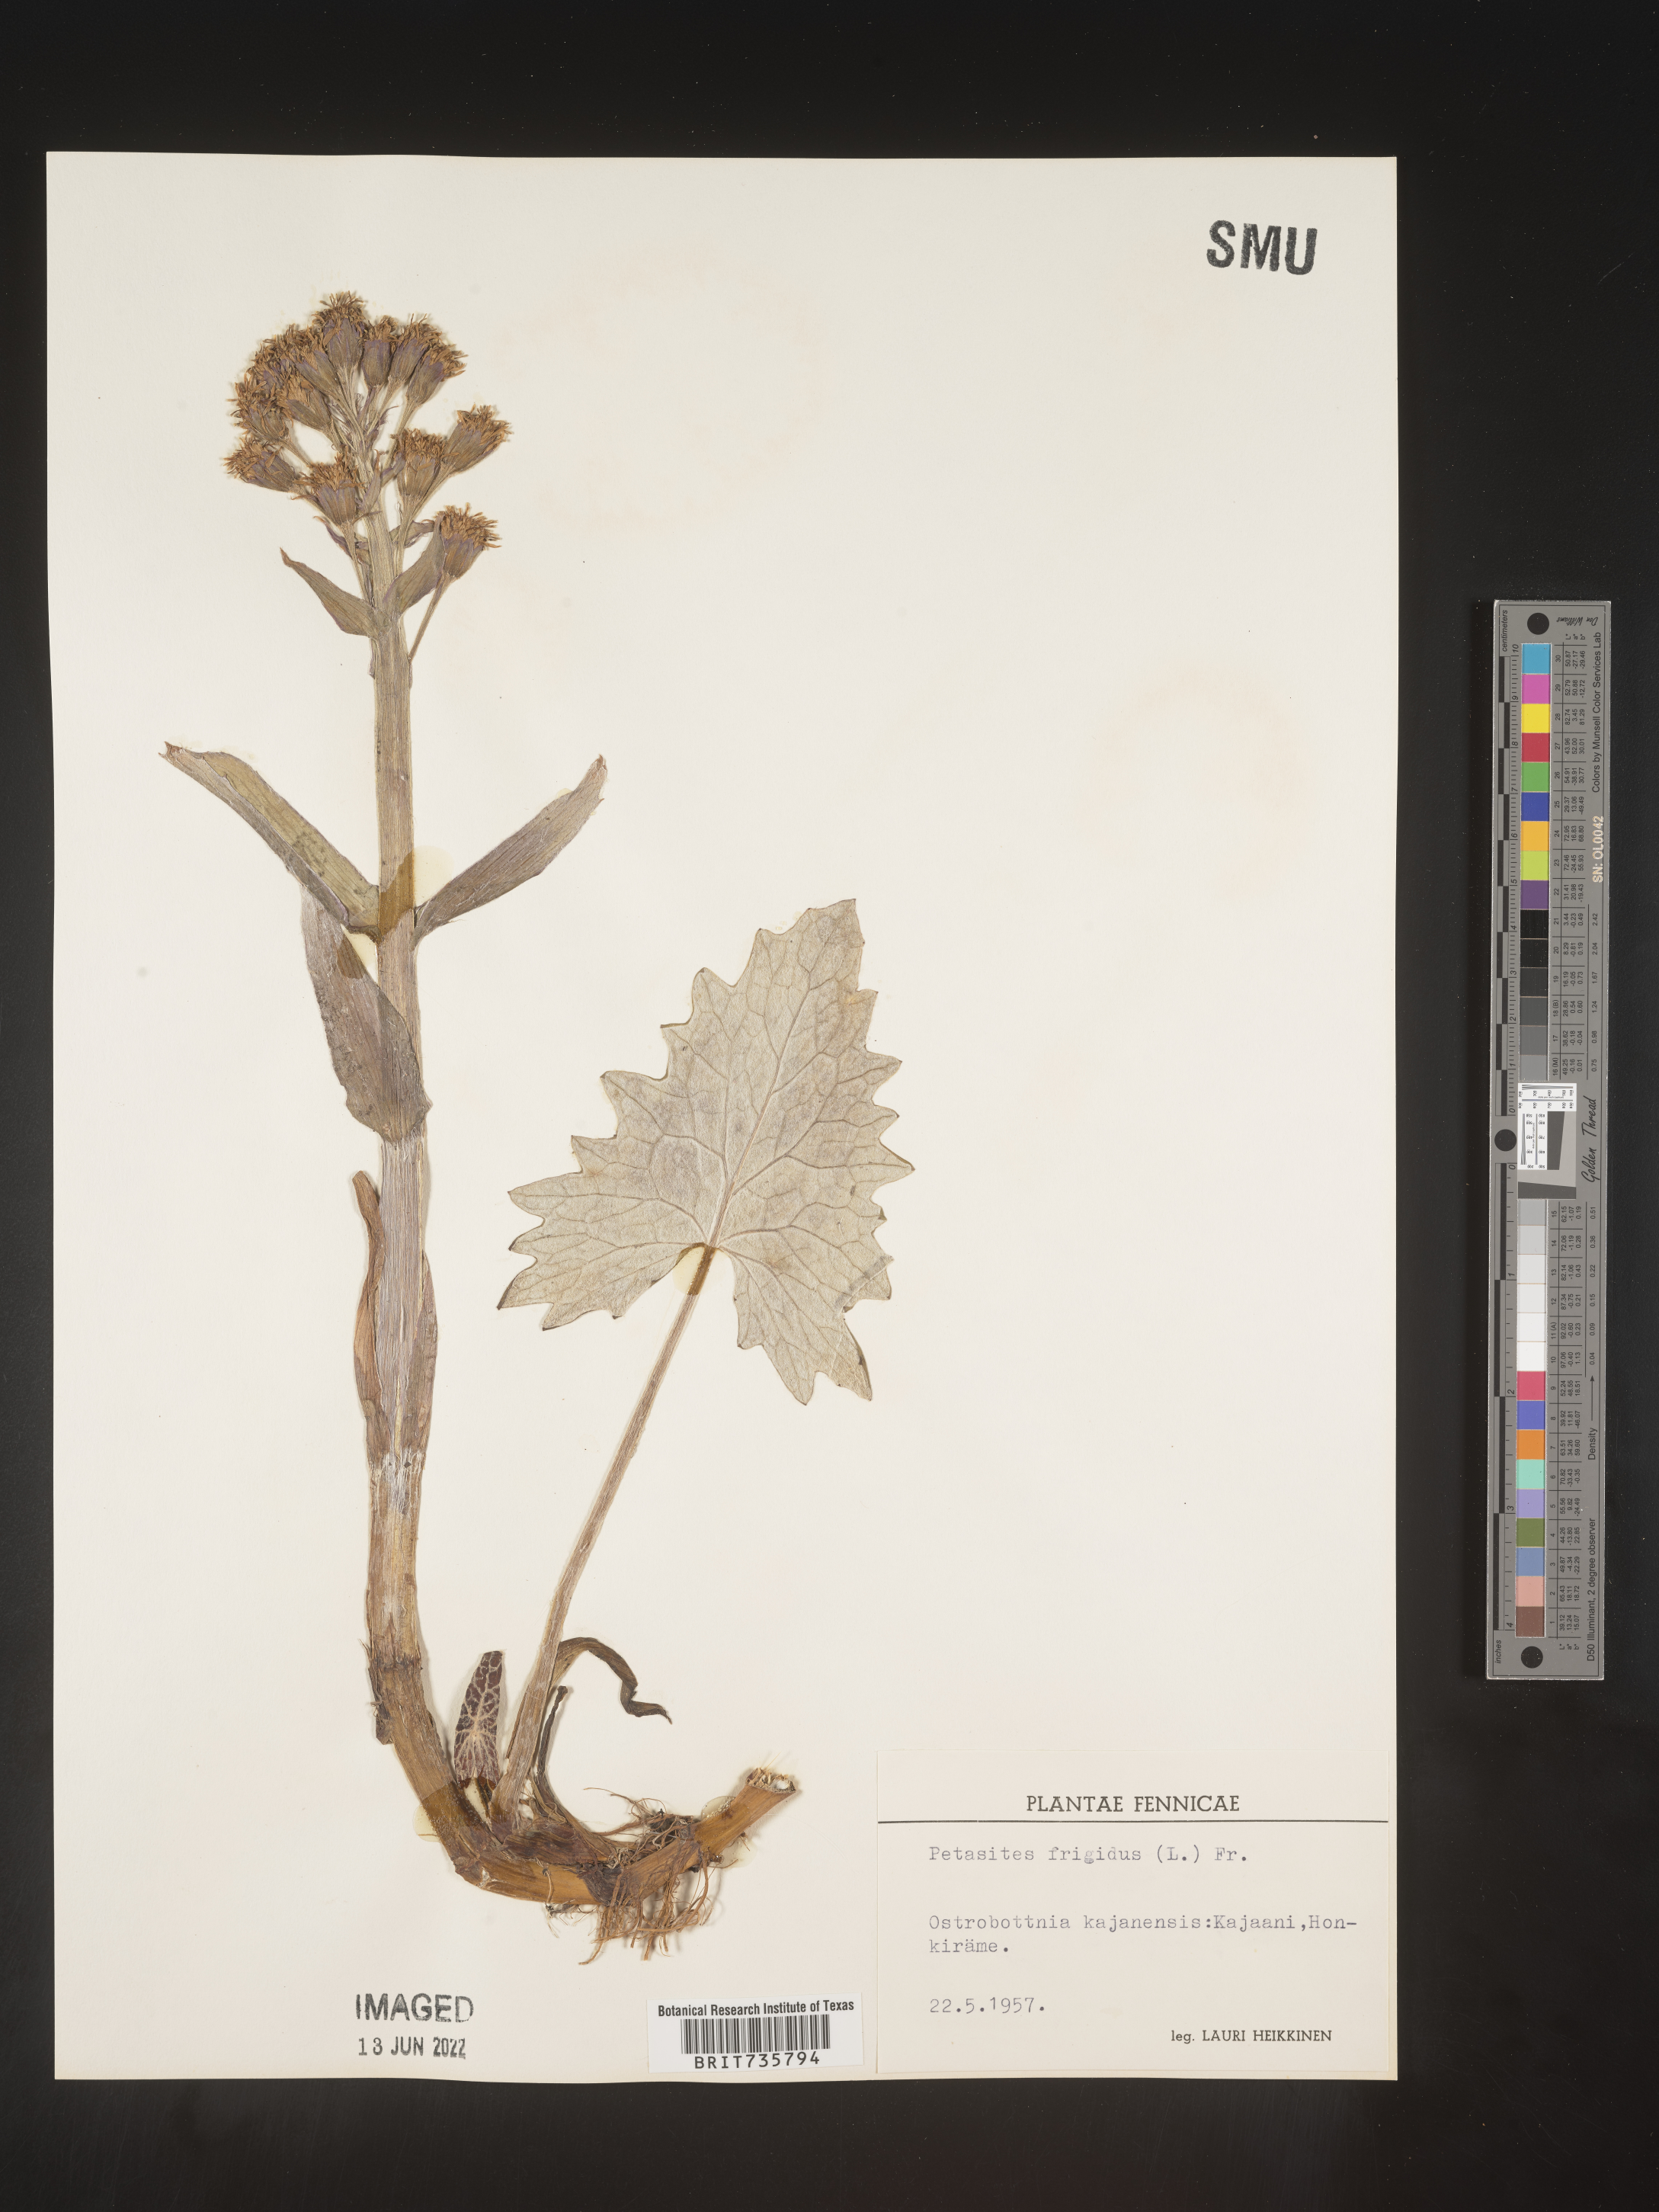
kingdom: Plantae
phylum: Tracheophyta
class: Magnoliopsida
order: Asterales
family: Asteraceae
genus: Petasites
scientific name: Petasites
